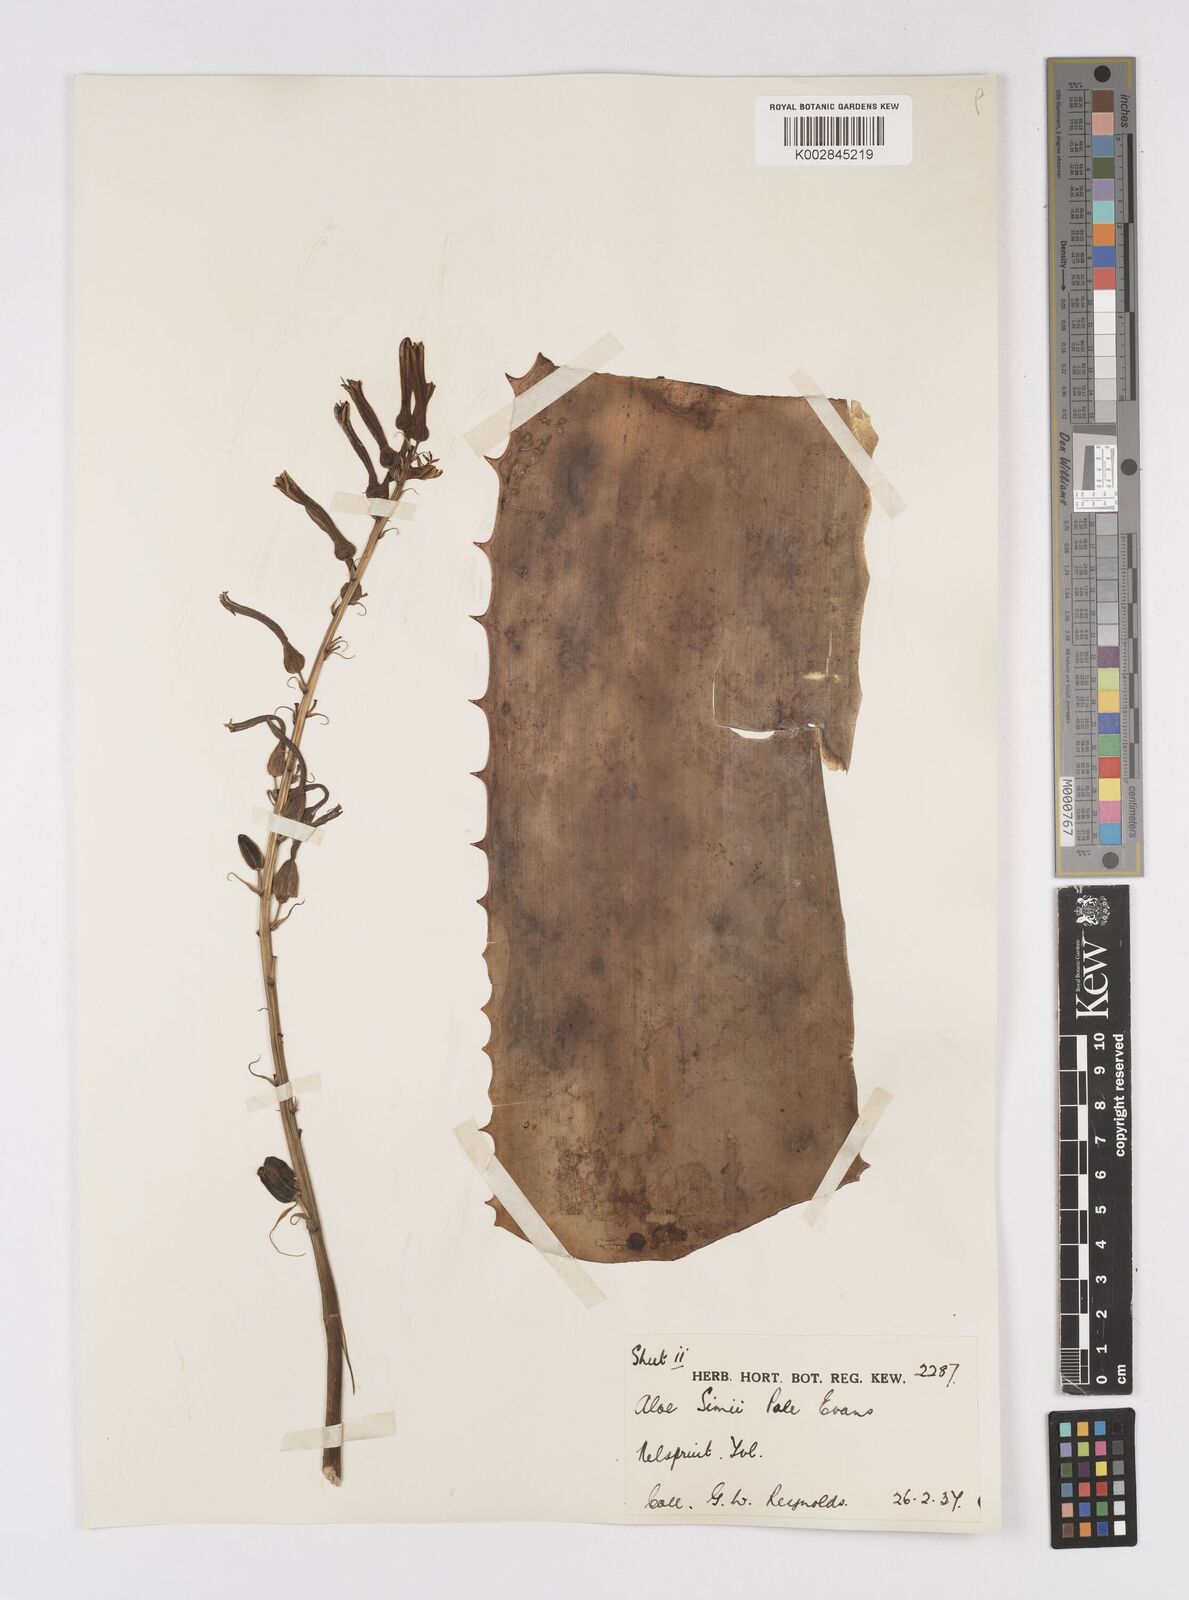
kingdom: Plantae
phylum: Tracheophyta
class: Liliopsida
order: Asparagales
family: Asphodelaceae
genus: Aloe
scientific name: Aloe simii
